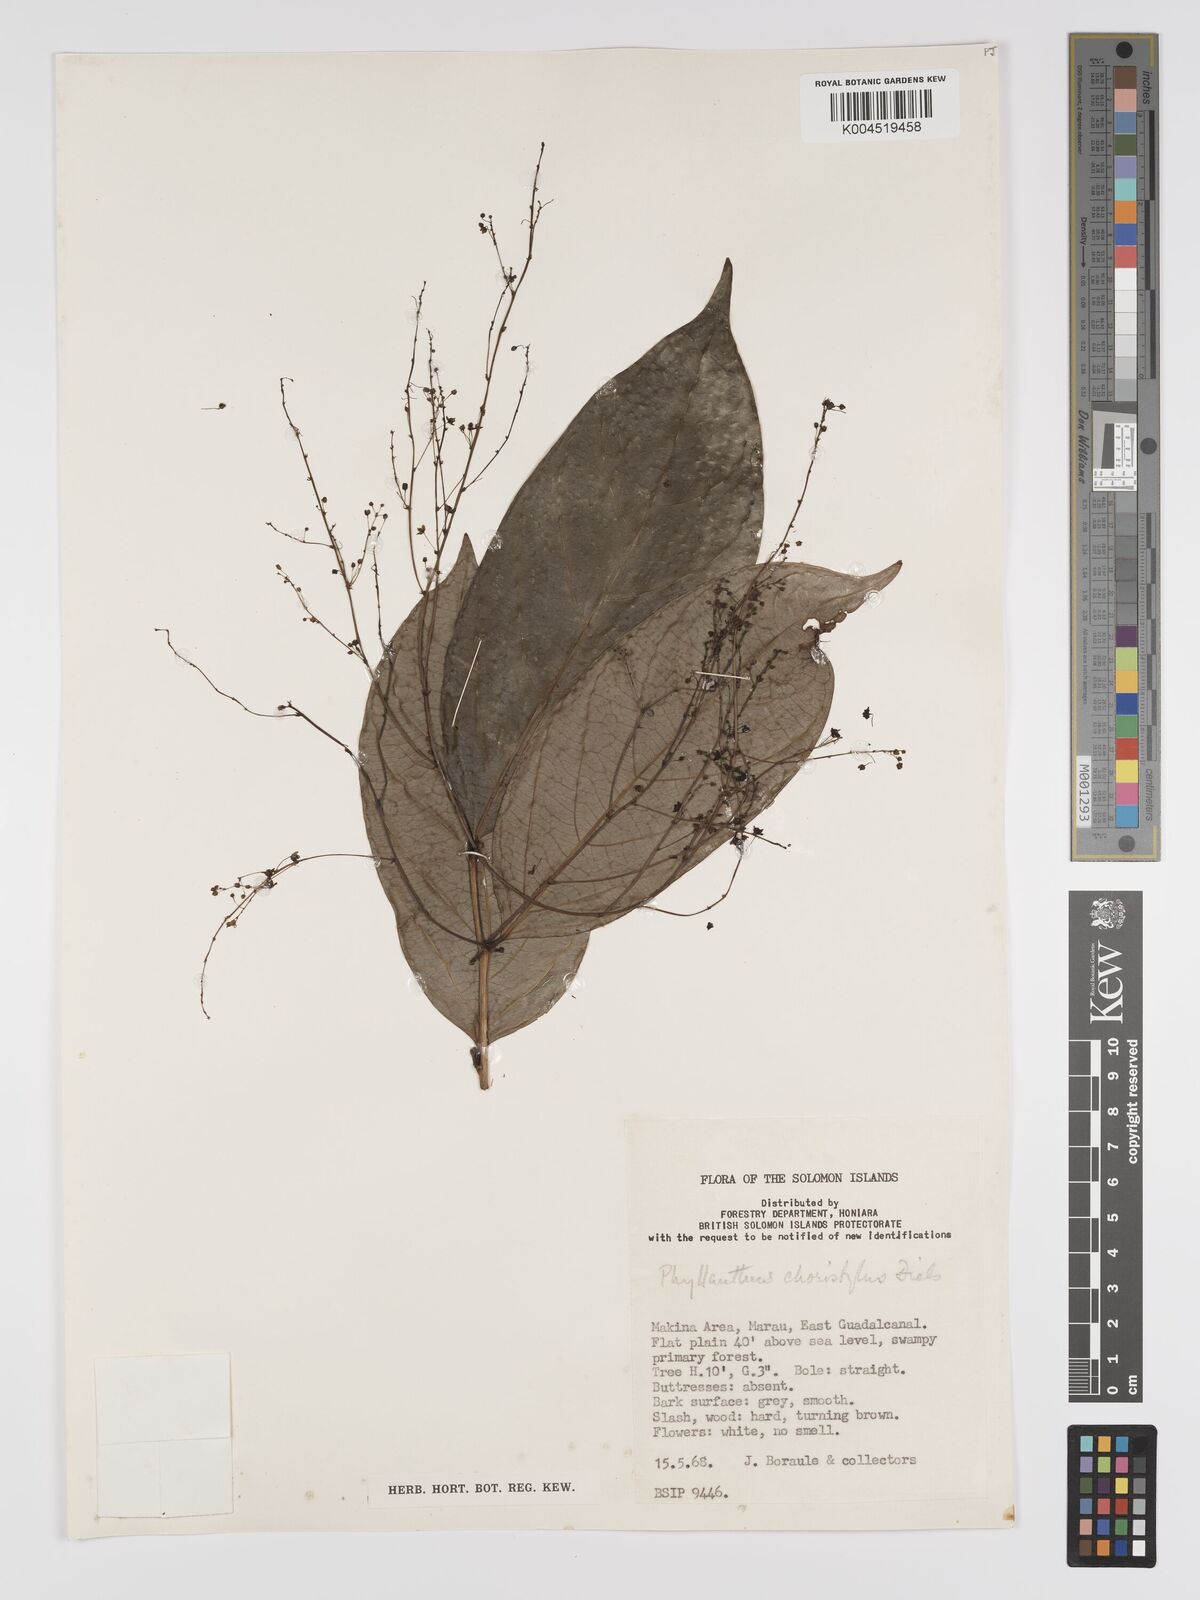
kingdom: Plantae
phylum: Tracheophyta
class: Magnoliopsida
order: Malpighiales
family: Phyllanthaceae
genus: Phyllanthus
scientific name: Phyllanthus clamboides
